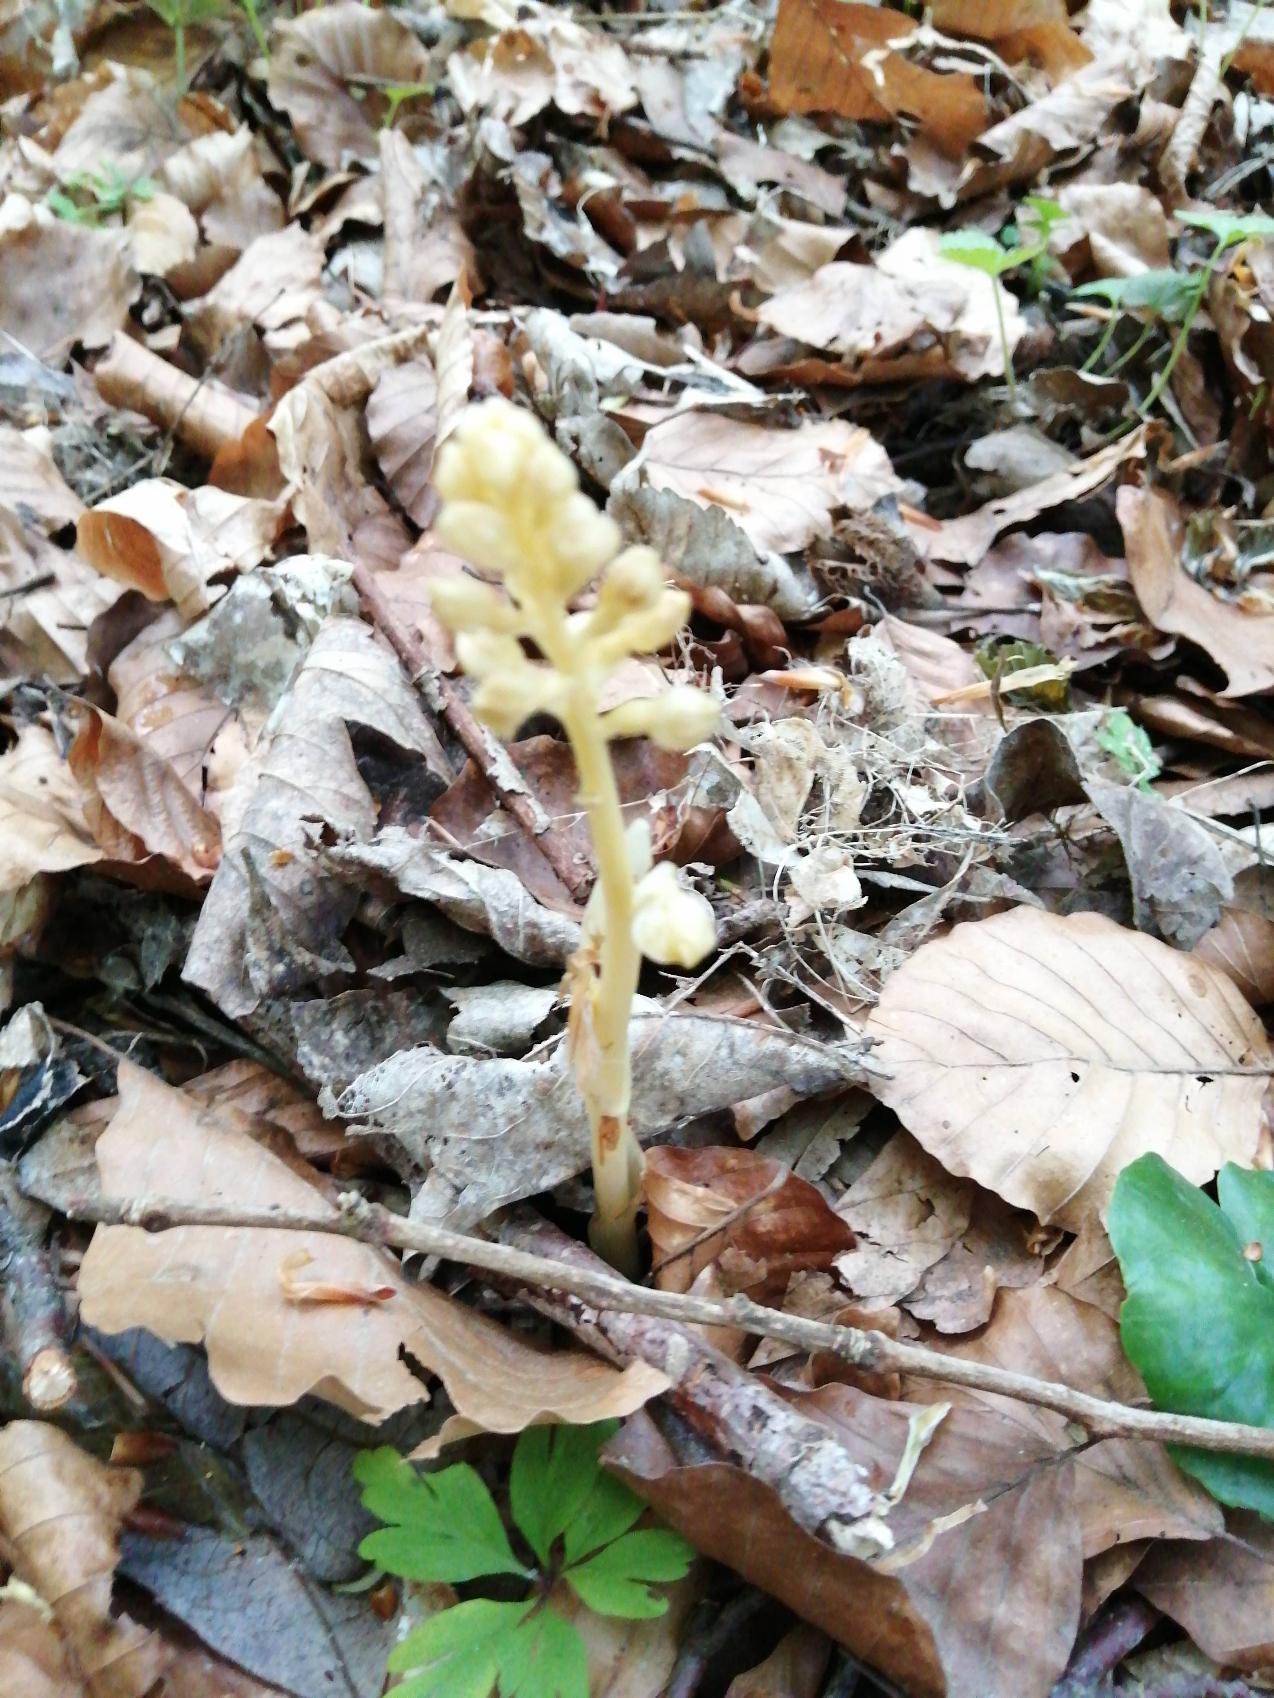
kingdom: Plantae
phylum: Tracheophyta
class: Liliopsida
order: Asparagales
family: Orchidaceae
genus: Neottia
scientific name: Neottia nidus-avis
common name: Rederod
